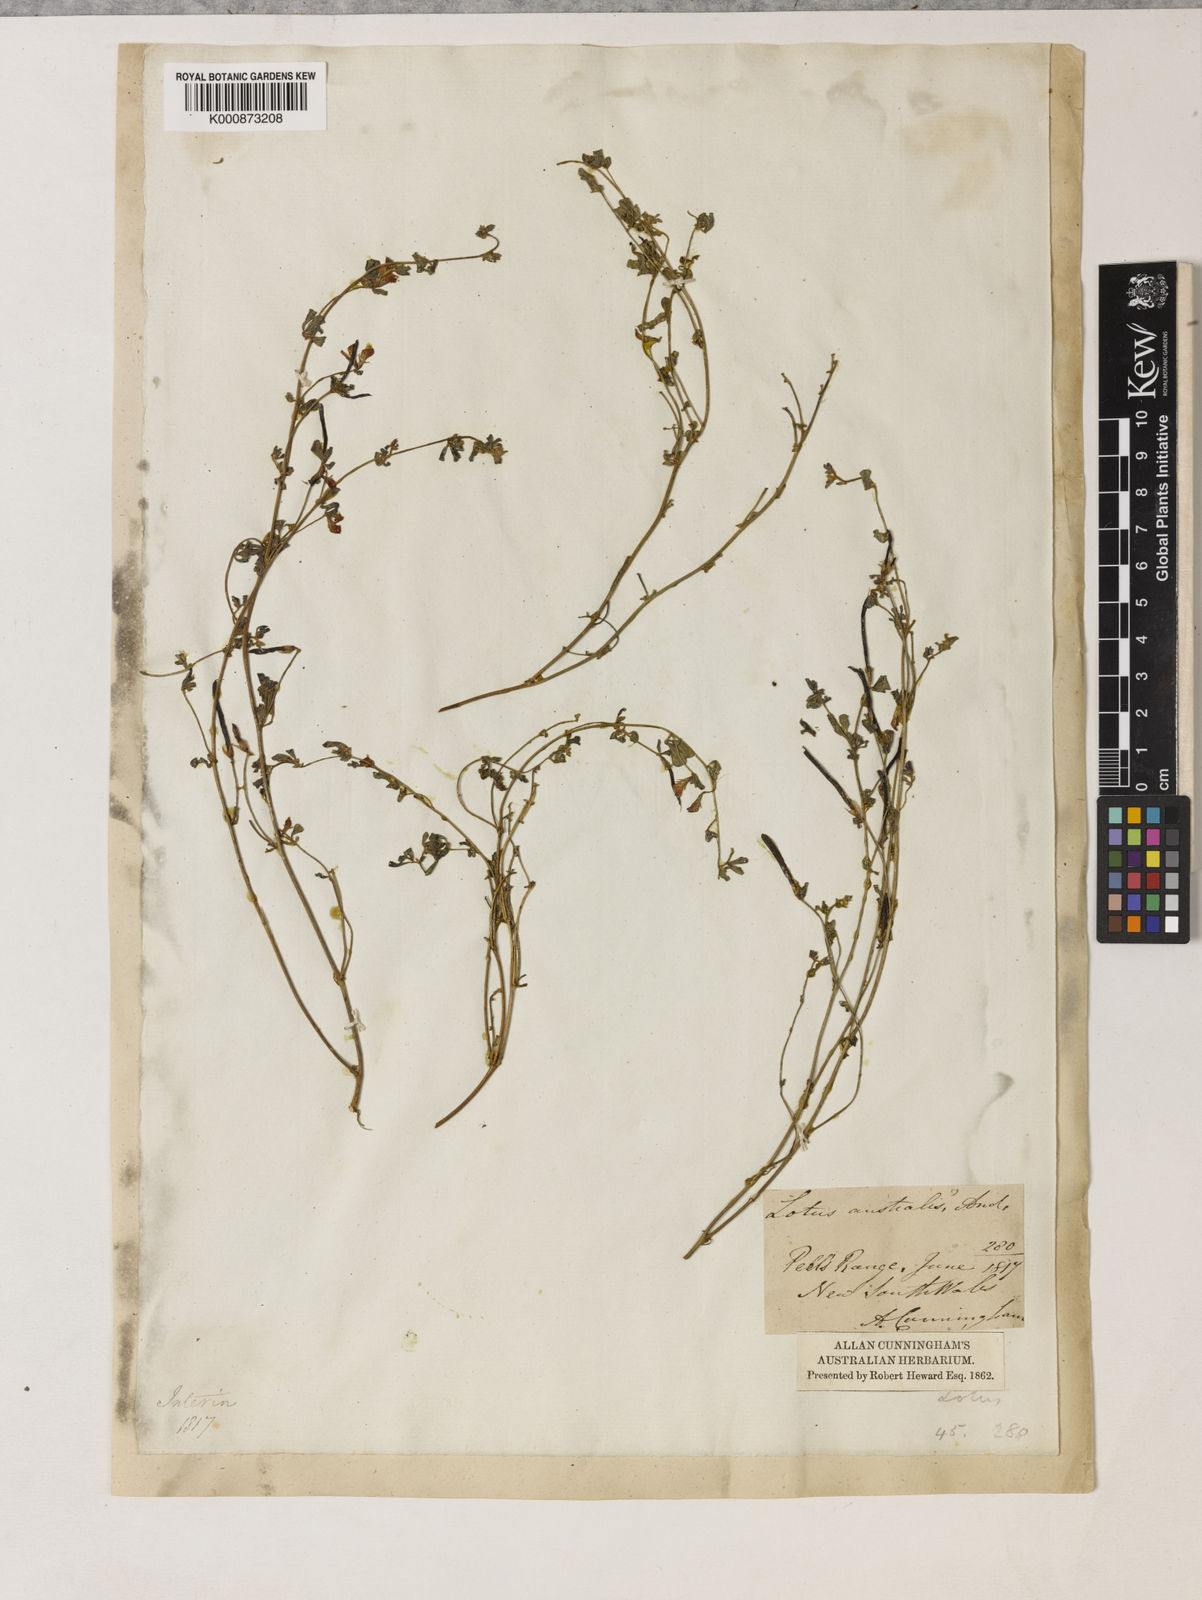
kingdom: Plantae
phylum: Tracheophyta
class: Magnoliopsida
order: Fabales
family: Fabaceae
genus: Lotus
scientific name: Lotus cruentus
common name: Red bird's-foot trefoil
